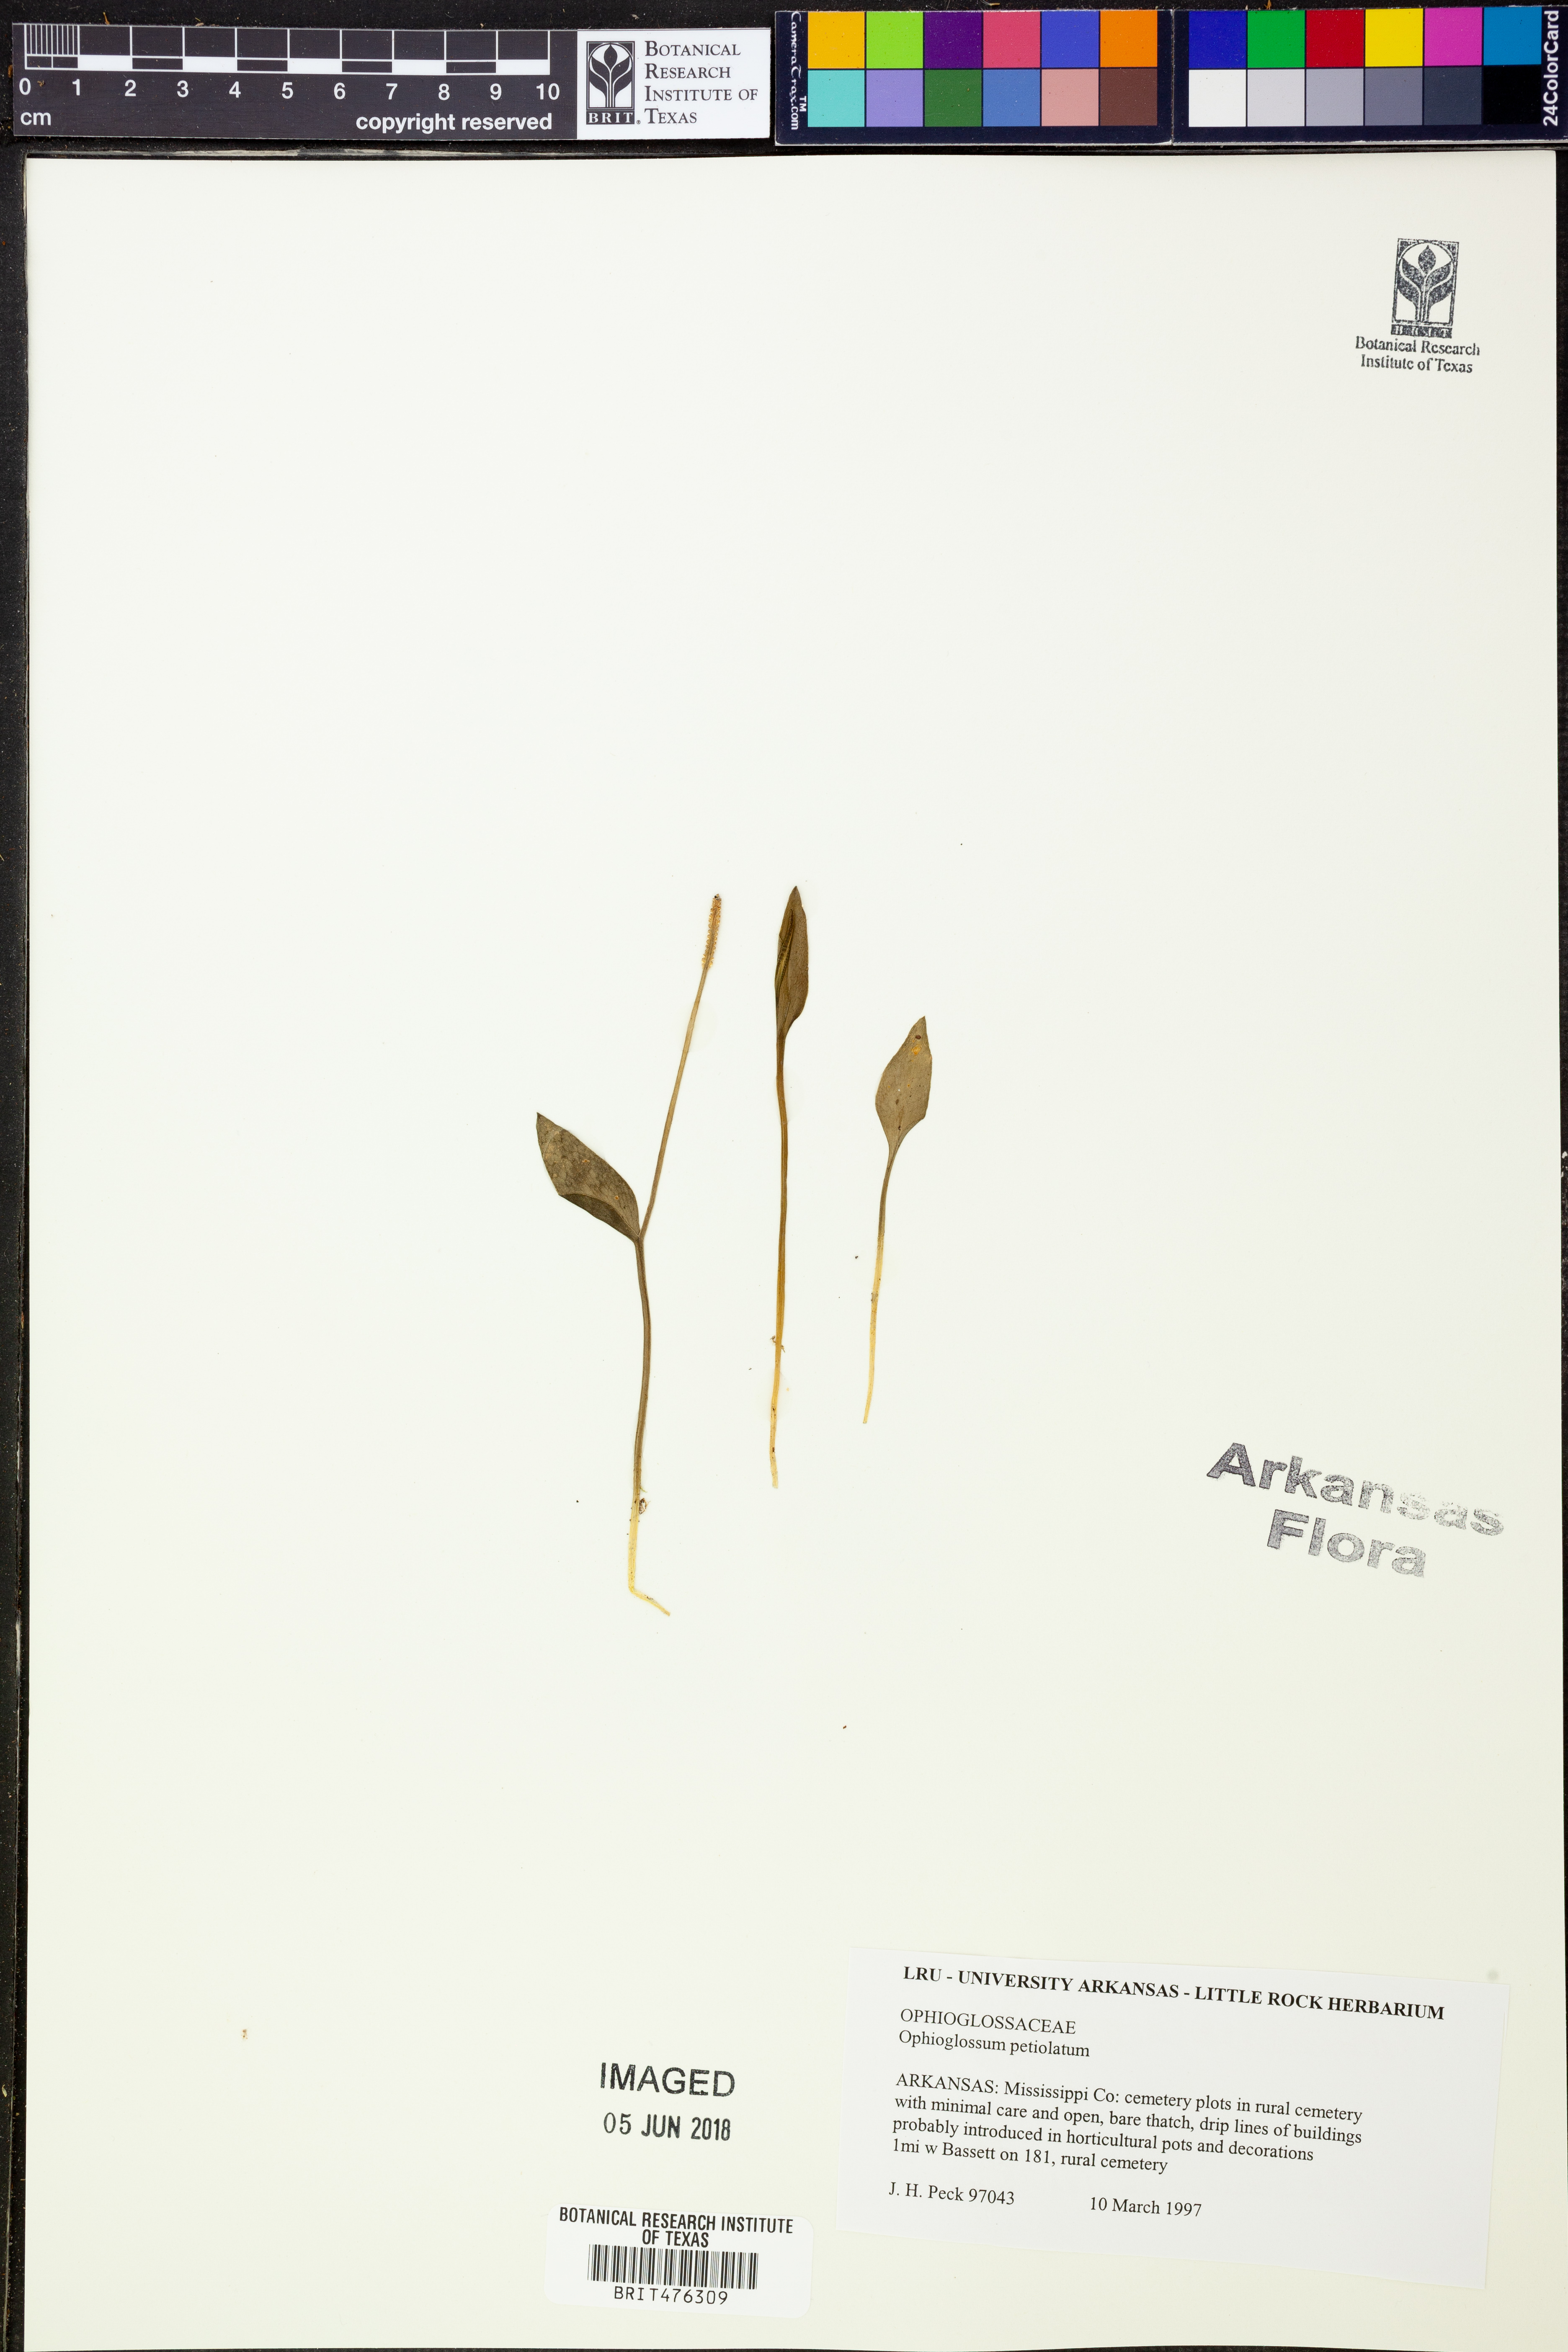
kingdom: Plantae
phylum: Tracheophyta
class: Polypodiopsida
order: Ophioglossales
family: Ophioglossaceae
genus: Ophioglossum
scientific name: Ophioglossum petiolatum
